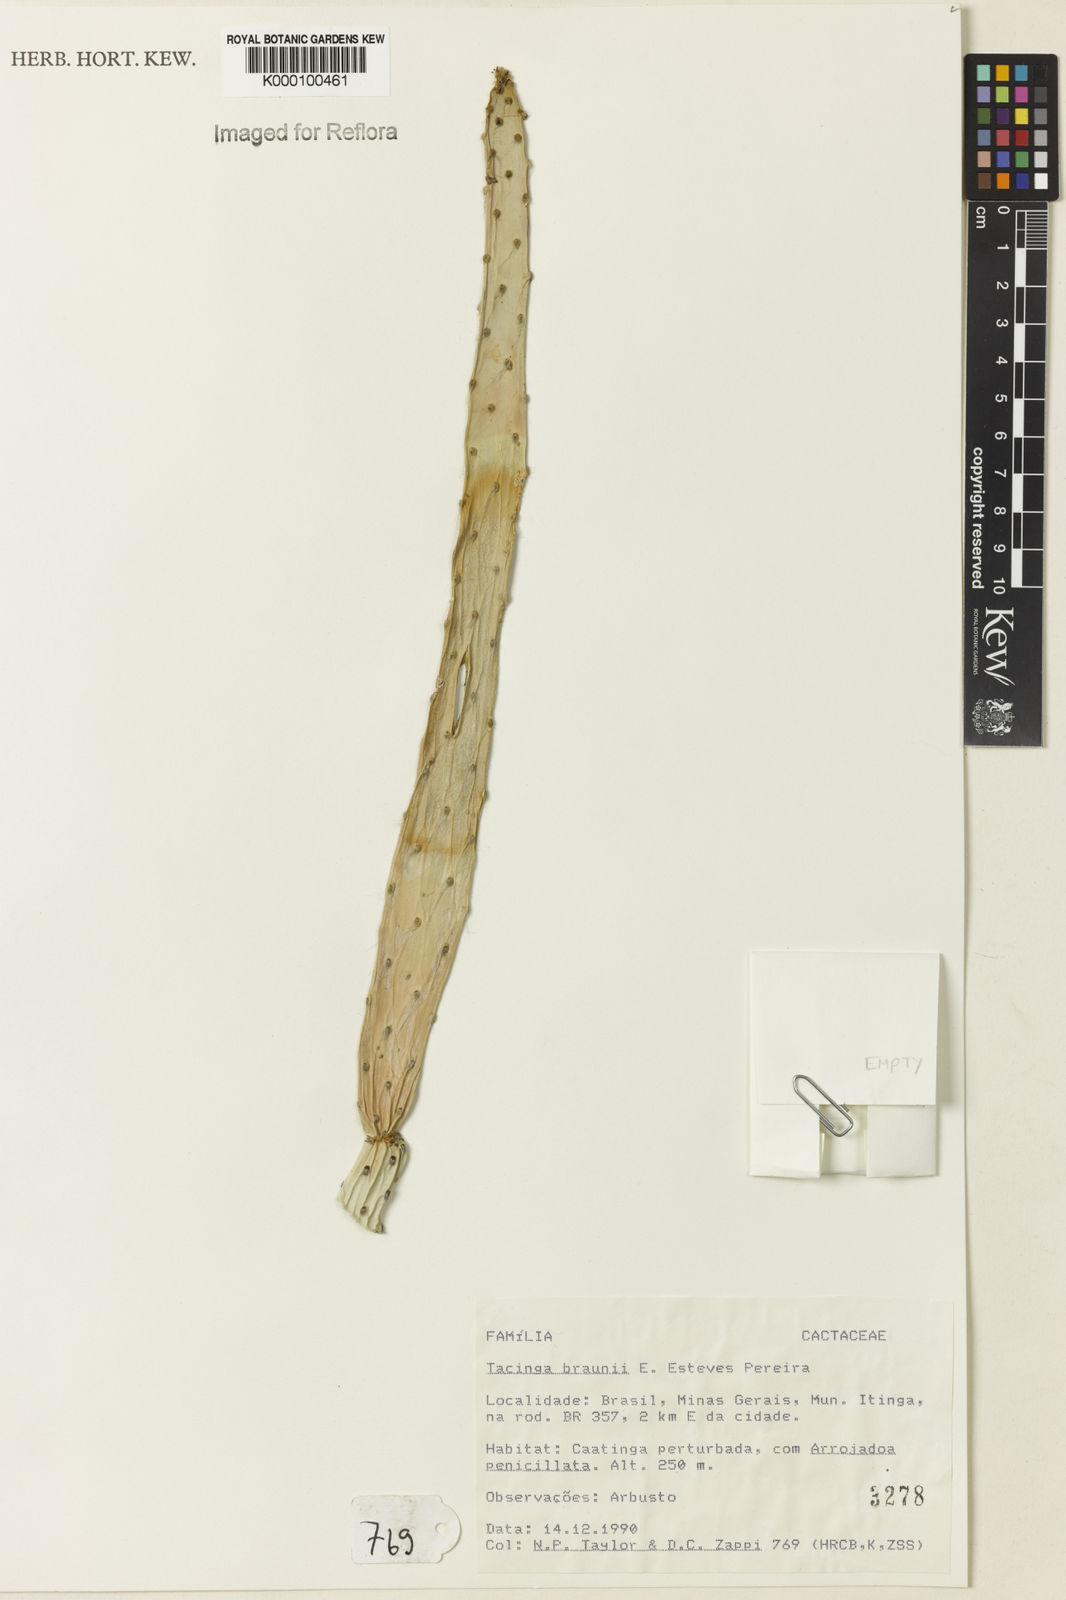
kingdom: Plantae
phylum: Tracheophyta
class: Magnoliopsida
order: Caryophyllales
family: Cactaceae
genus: Tacinga
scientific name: Tacinga braunii
